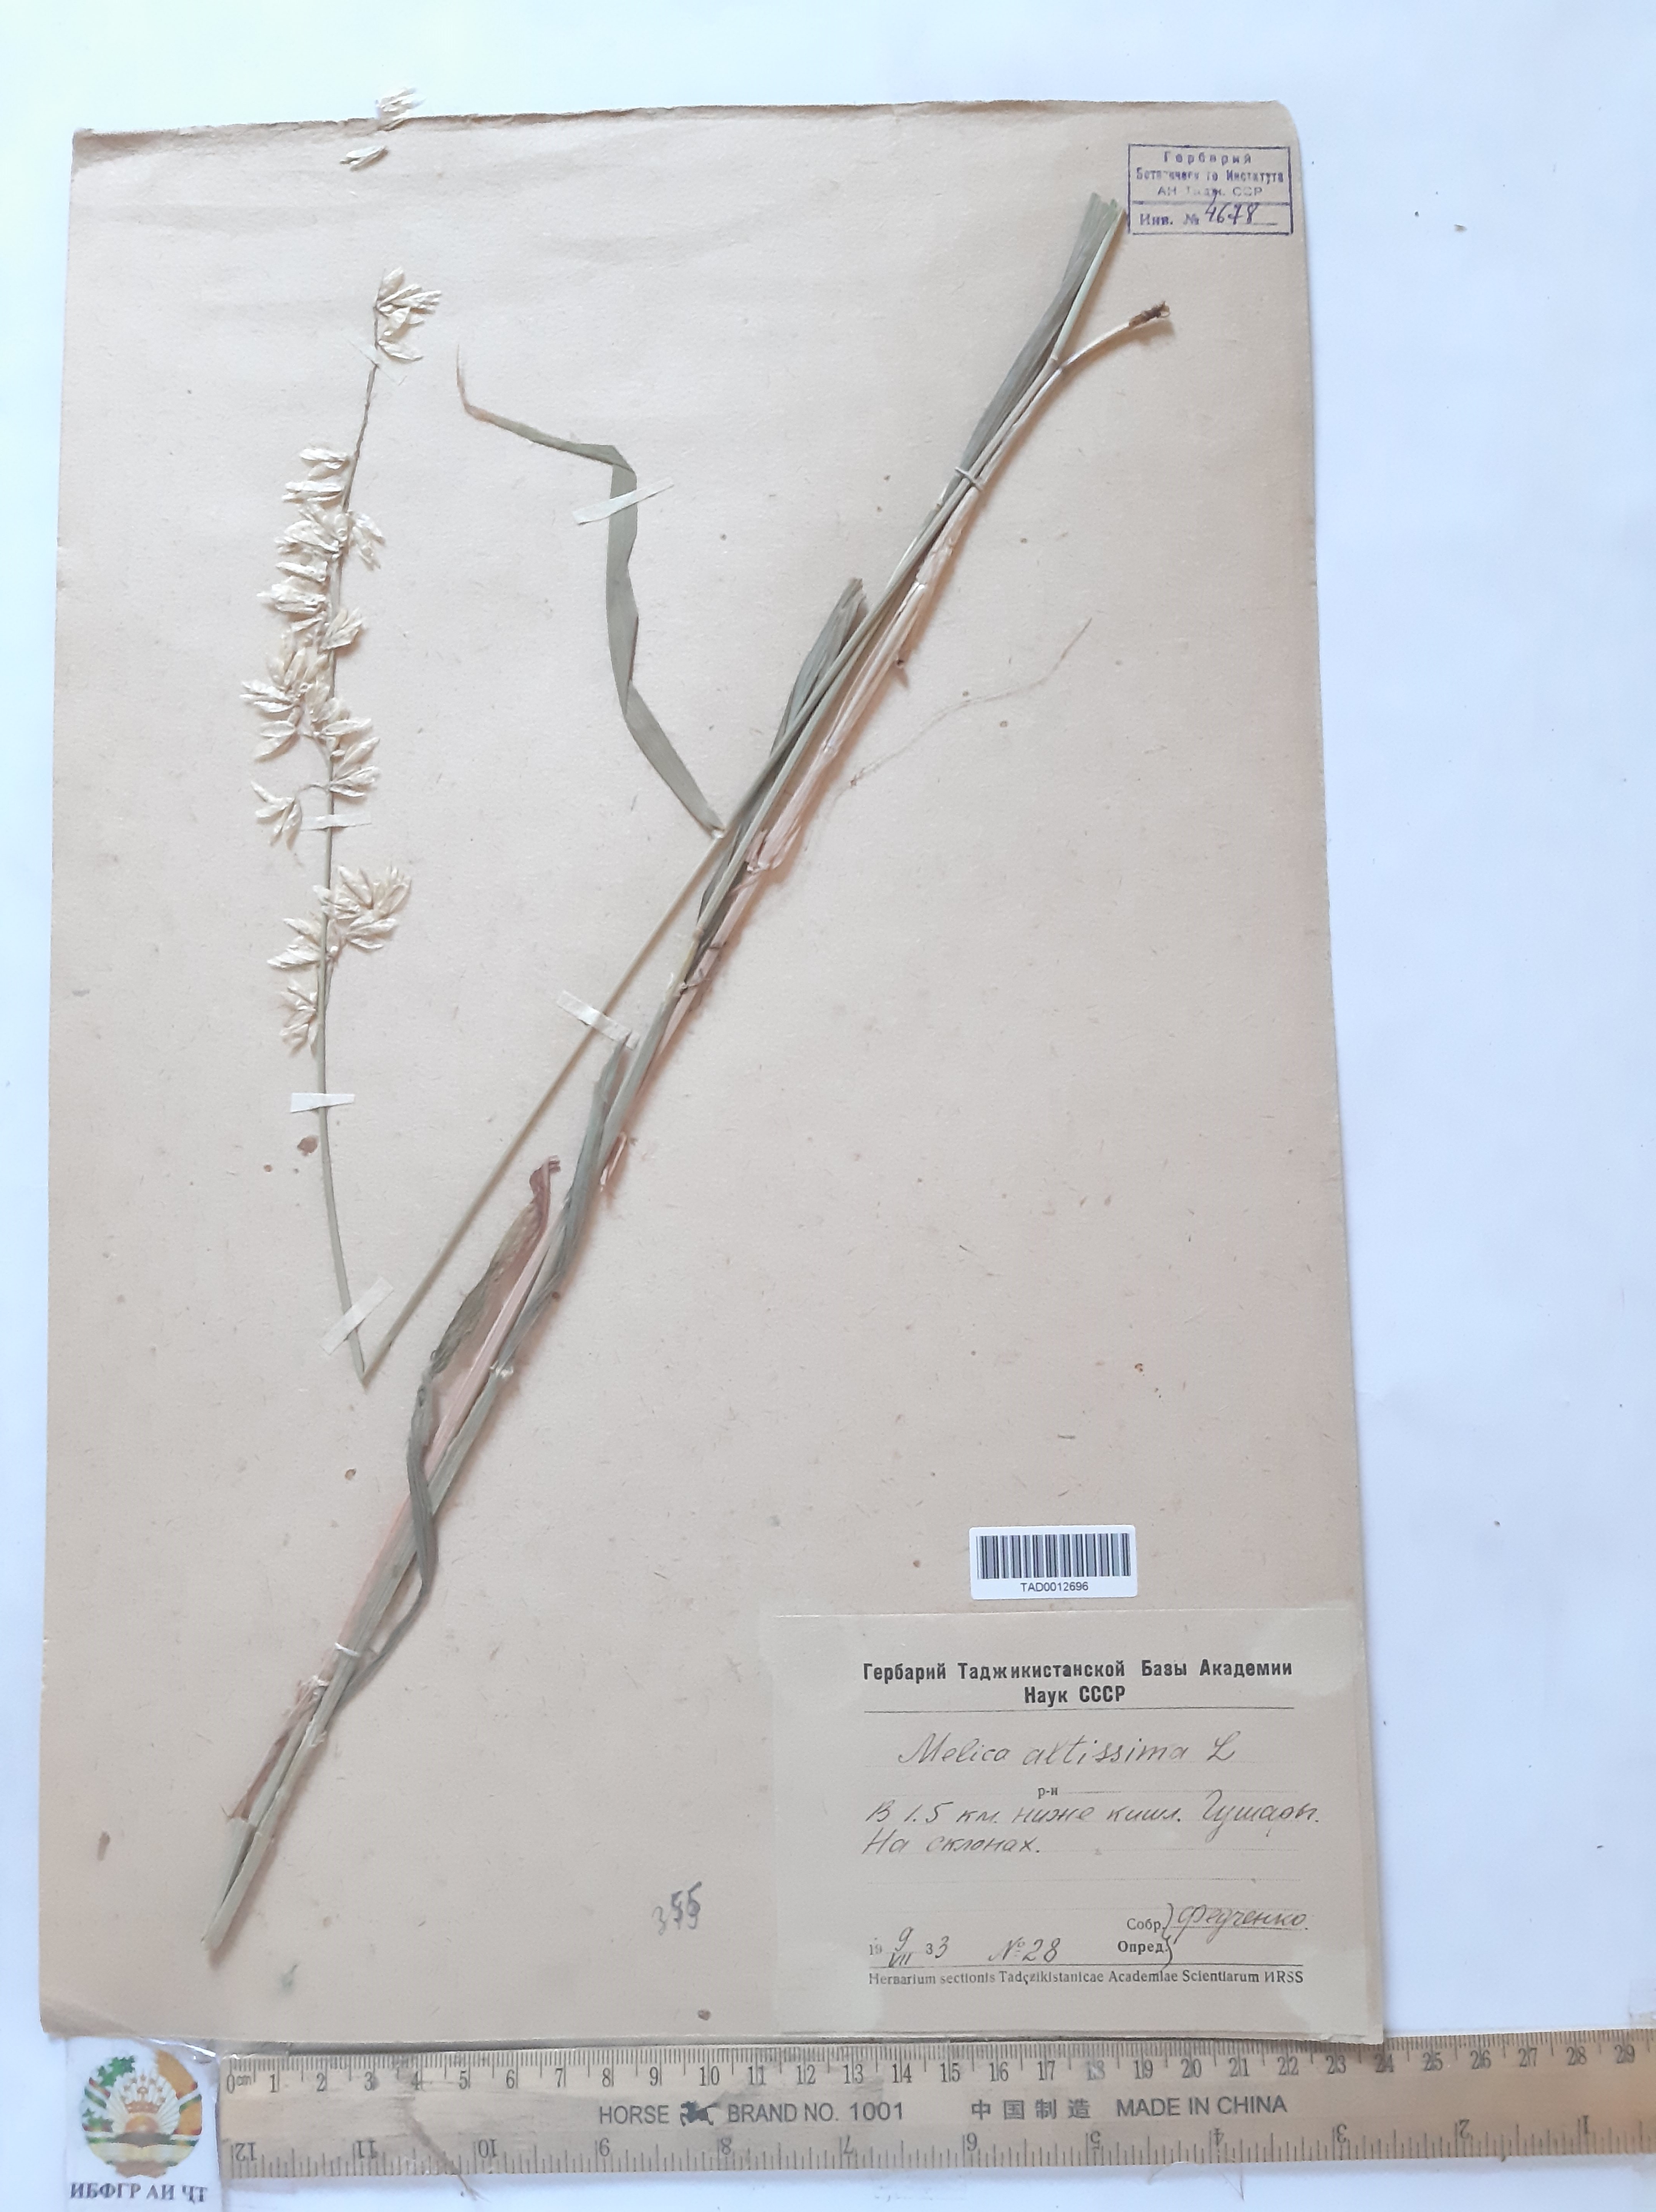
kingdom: Plantae
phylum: Tracheophyta
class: Liliopsida
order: Poales
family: Poaceae
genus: Melica
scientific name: Melica altissima
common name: Siberian melicgrass
